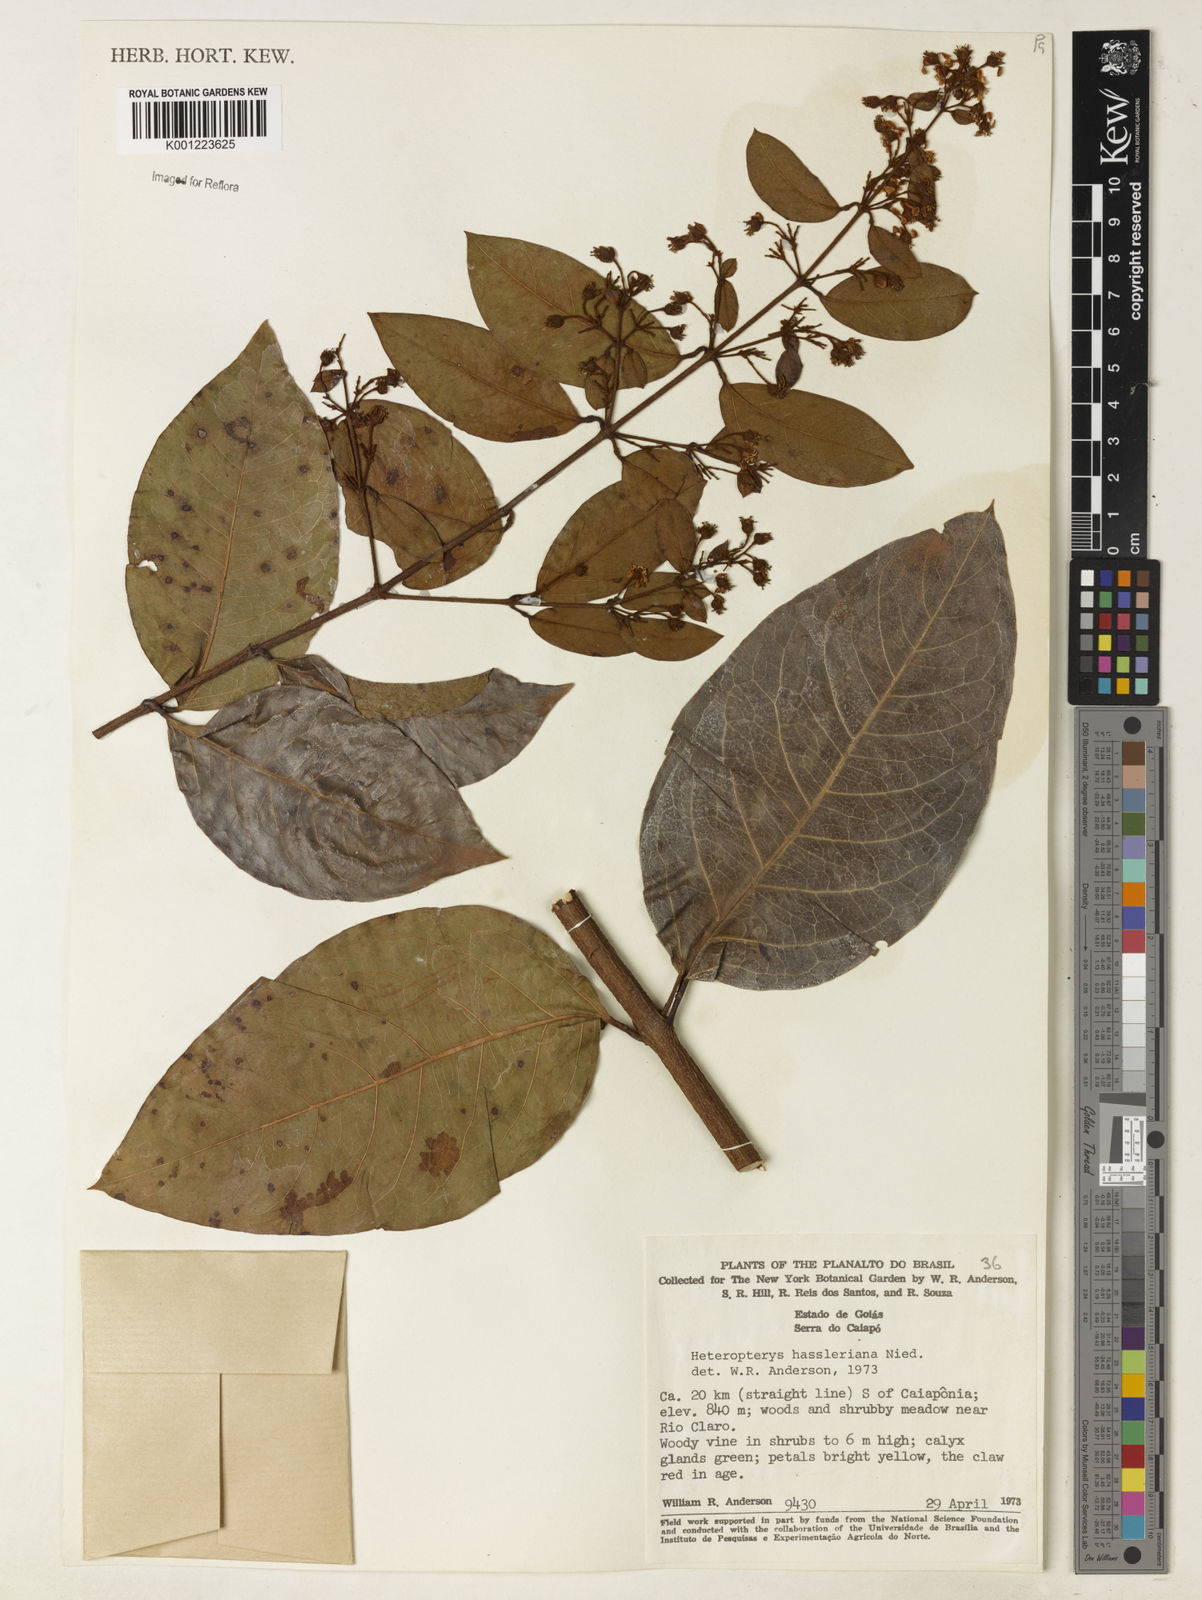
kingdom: Plantae
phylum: Tracheophyta
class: Magnoliopsida
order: Malpighiales
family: Malpighiaceae
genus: Heteropterys
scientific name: Heteropterys cochleosperma
